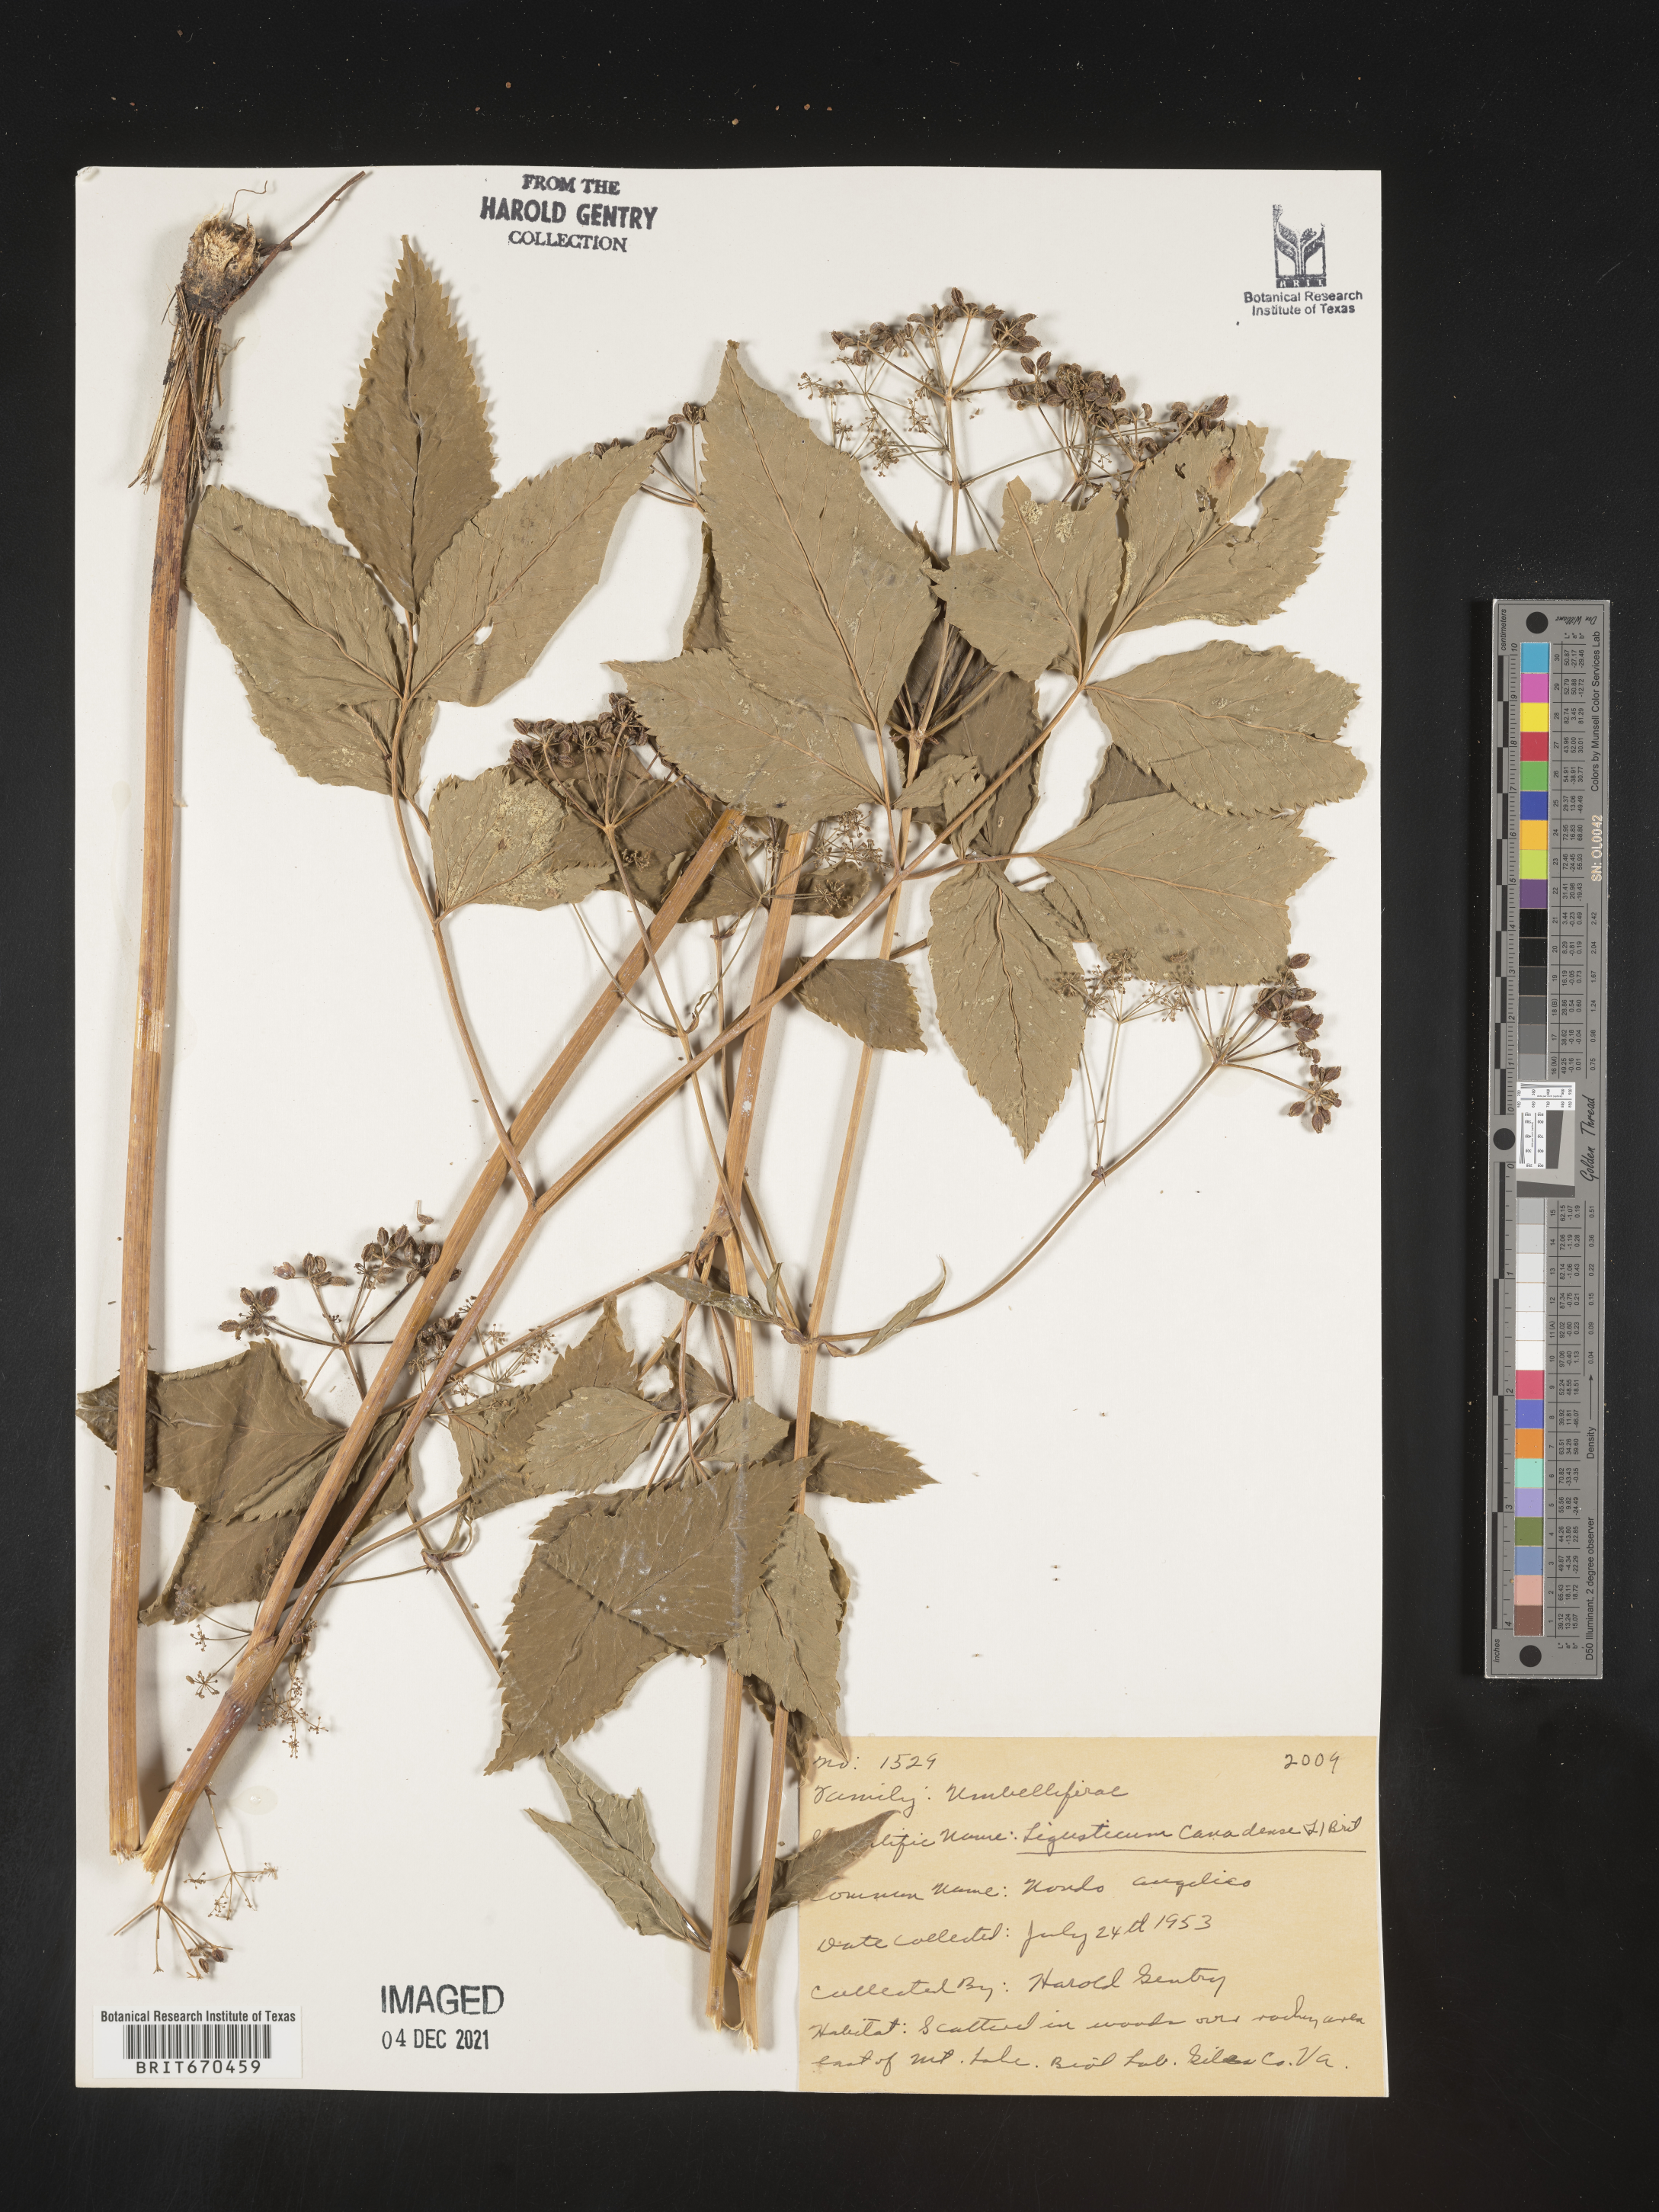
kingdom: Plantae
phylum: Tracheophyta
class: Magnoliopsida
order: Apiales
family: Apiaceae
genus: Ligusticum
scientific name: Ligusticum
